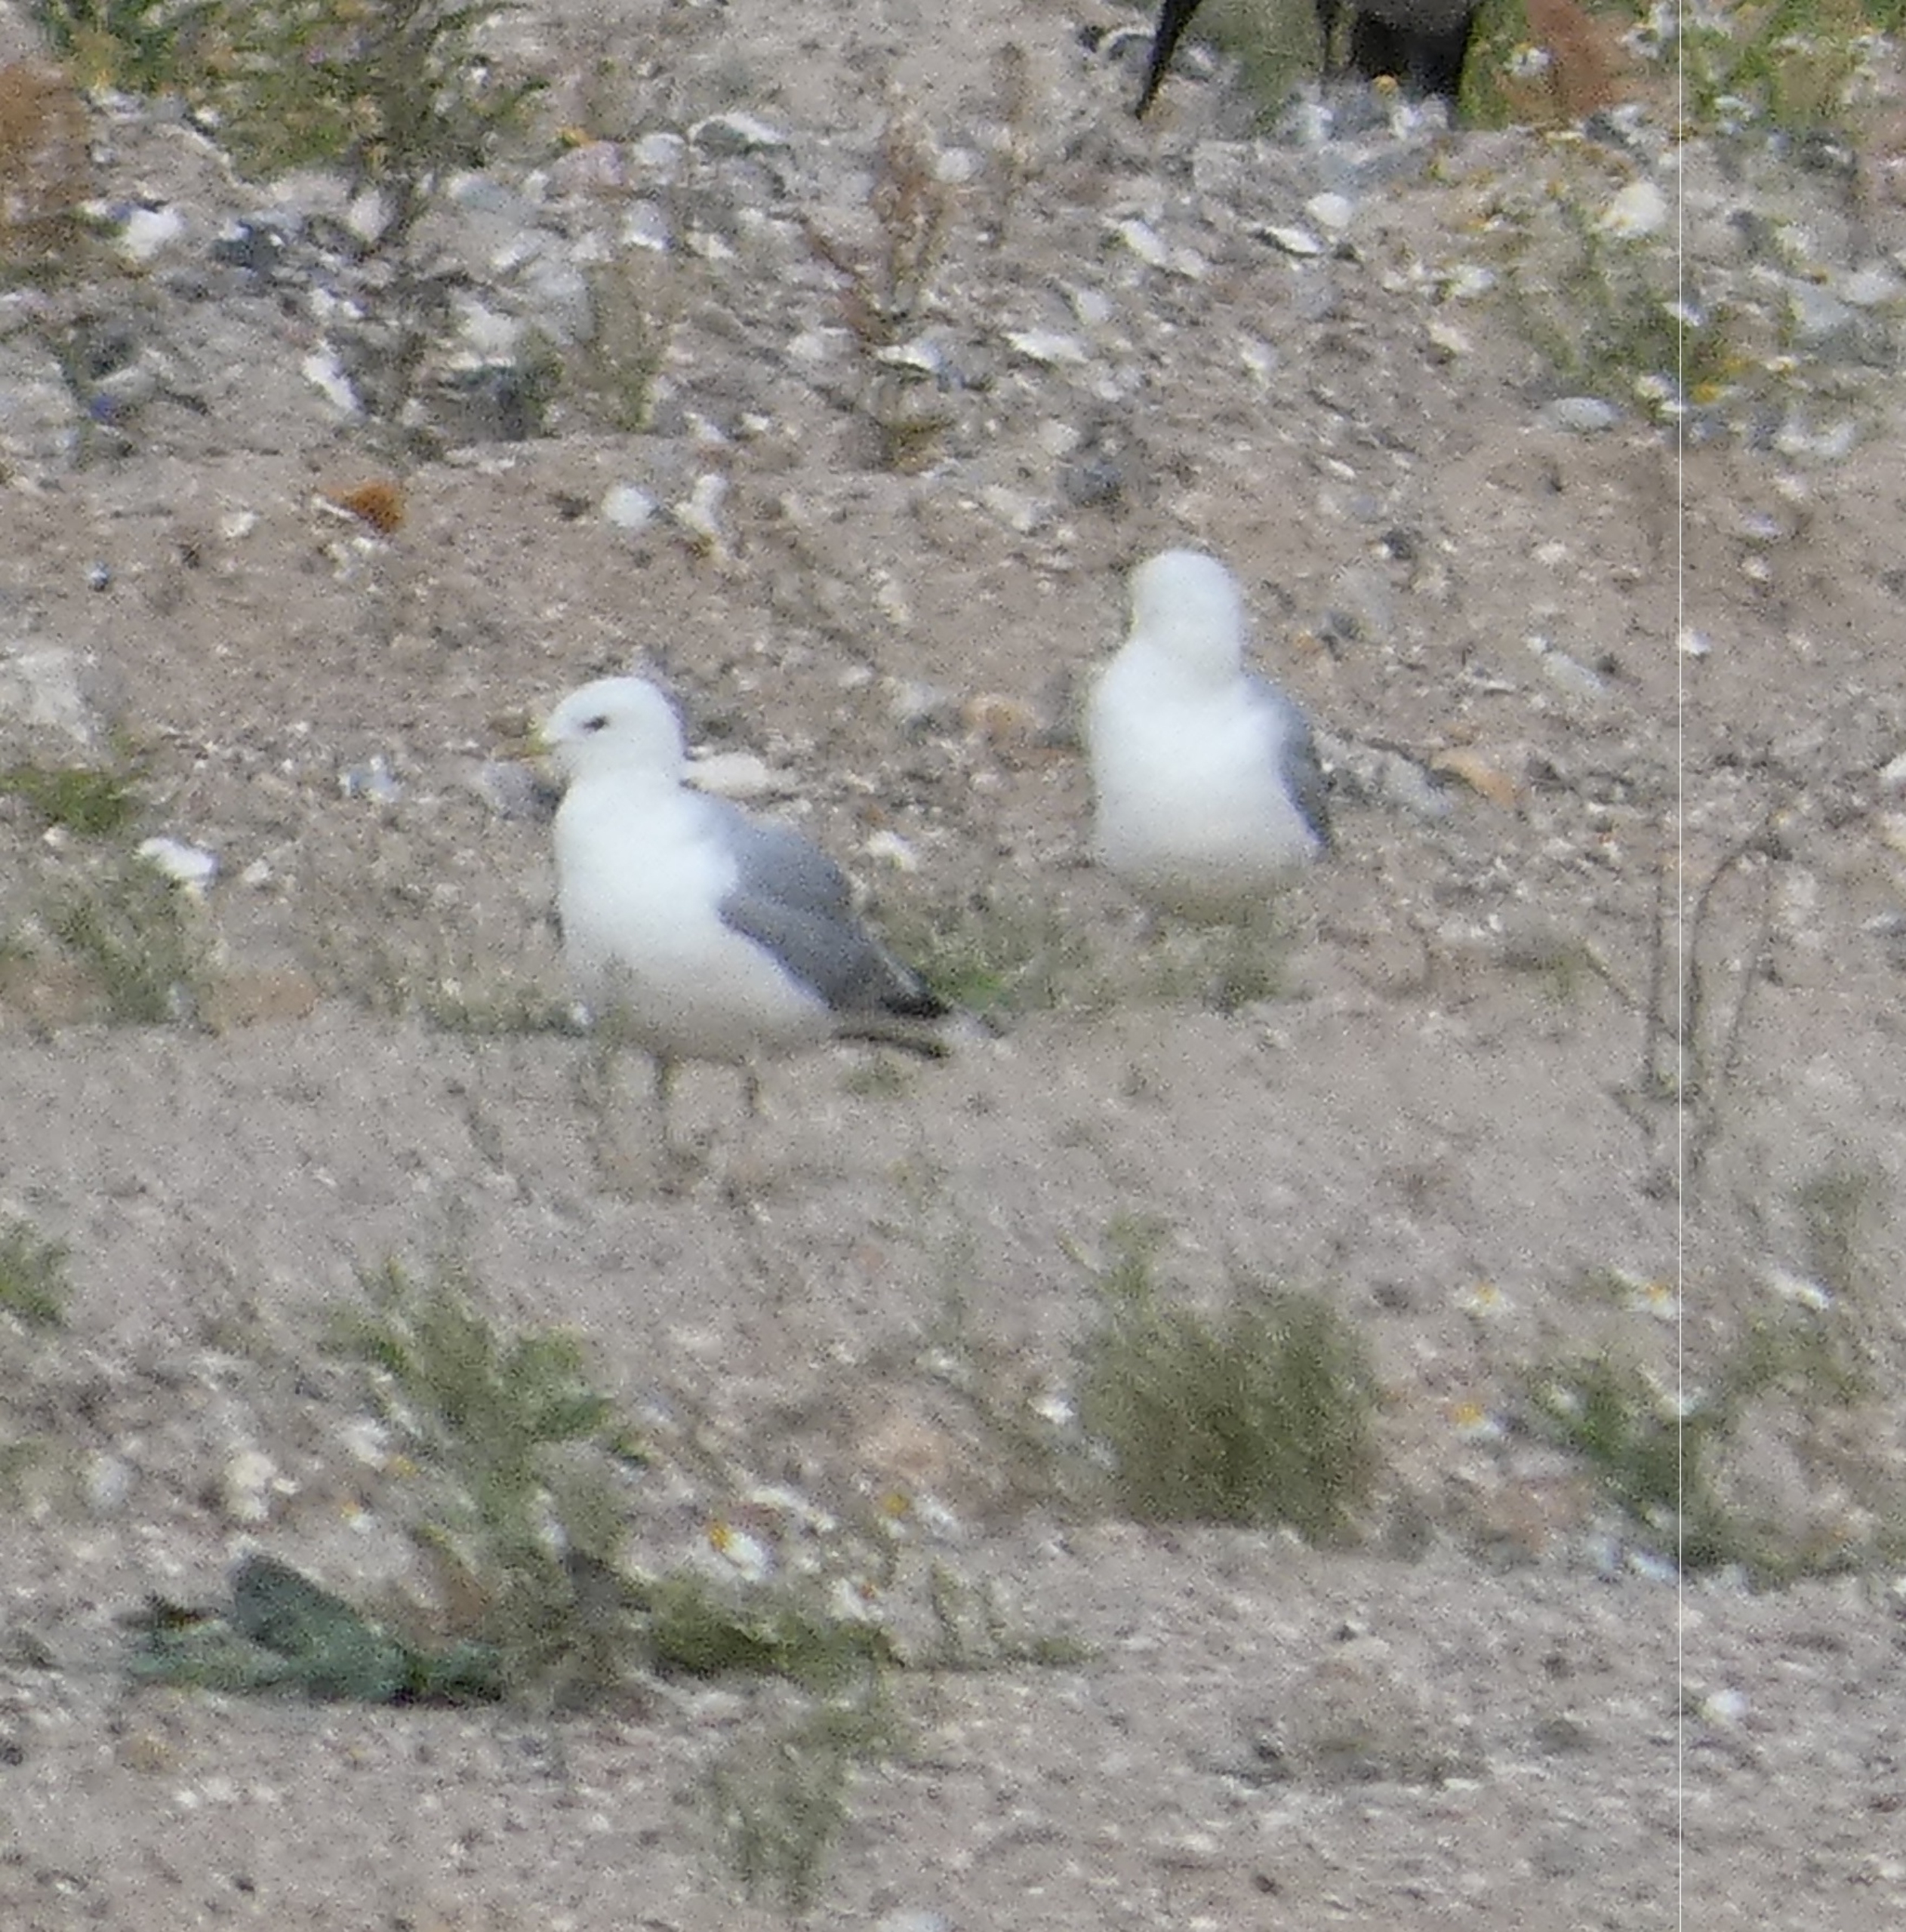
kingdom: Animalia
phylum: Chordata
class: Aves
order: Charadriiformes
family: Laridae
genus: Larus
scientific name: Larus canus
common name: Stormmåge
